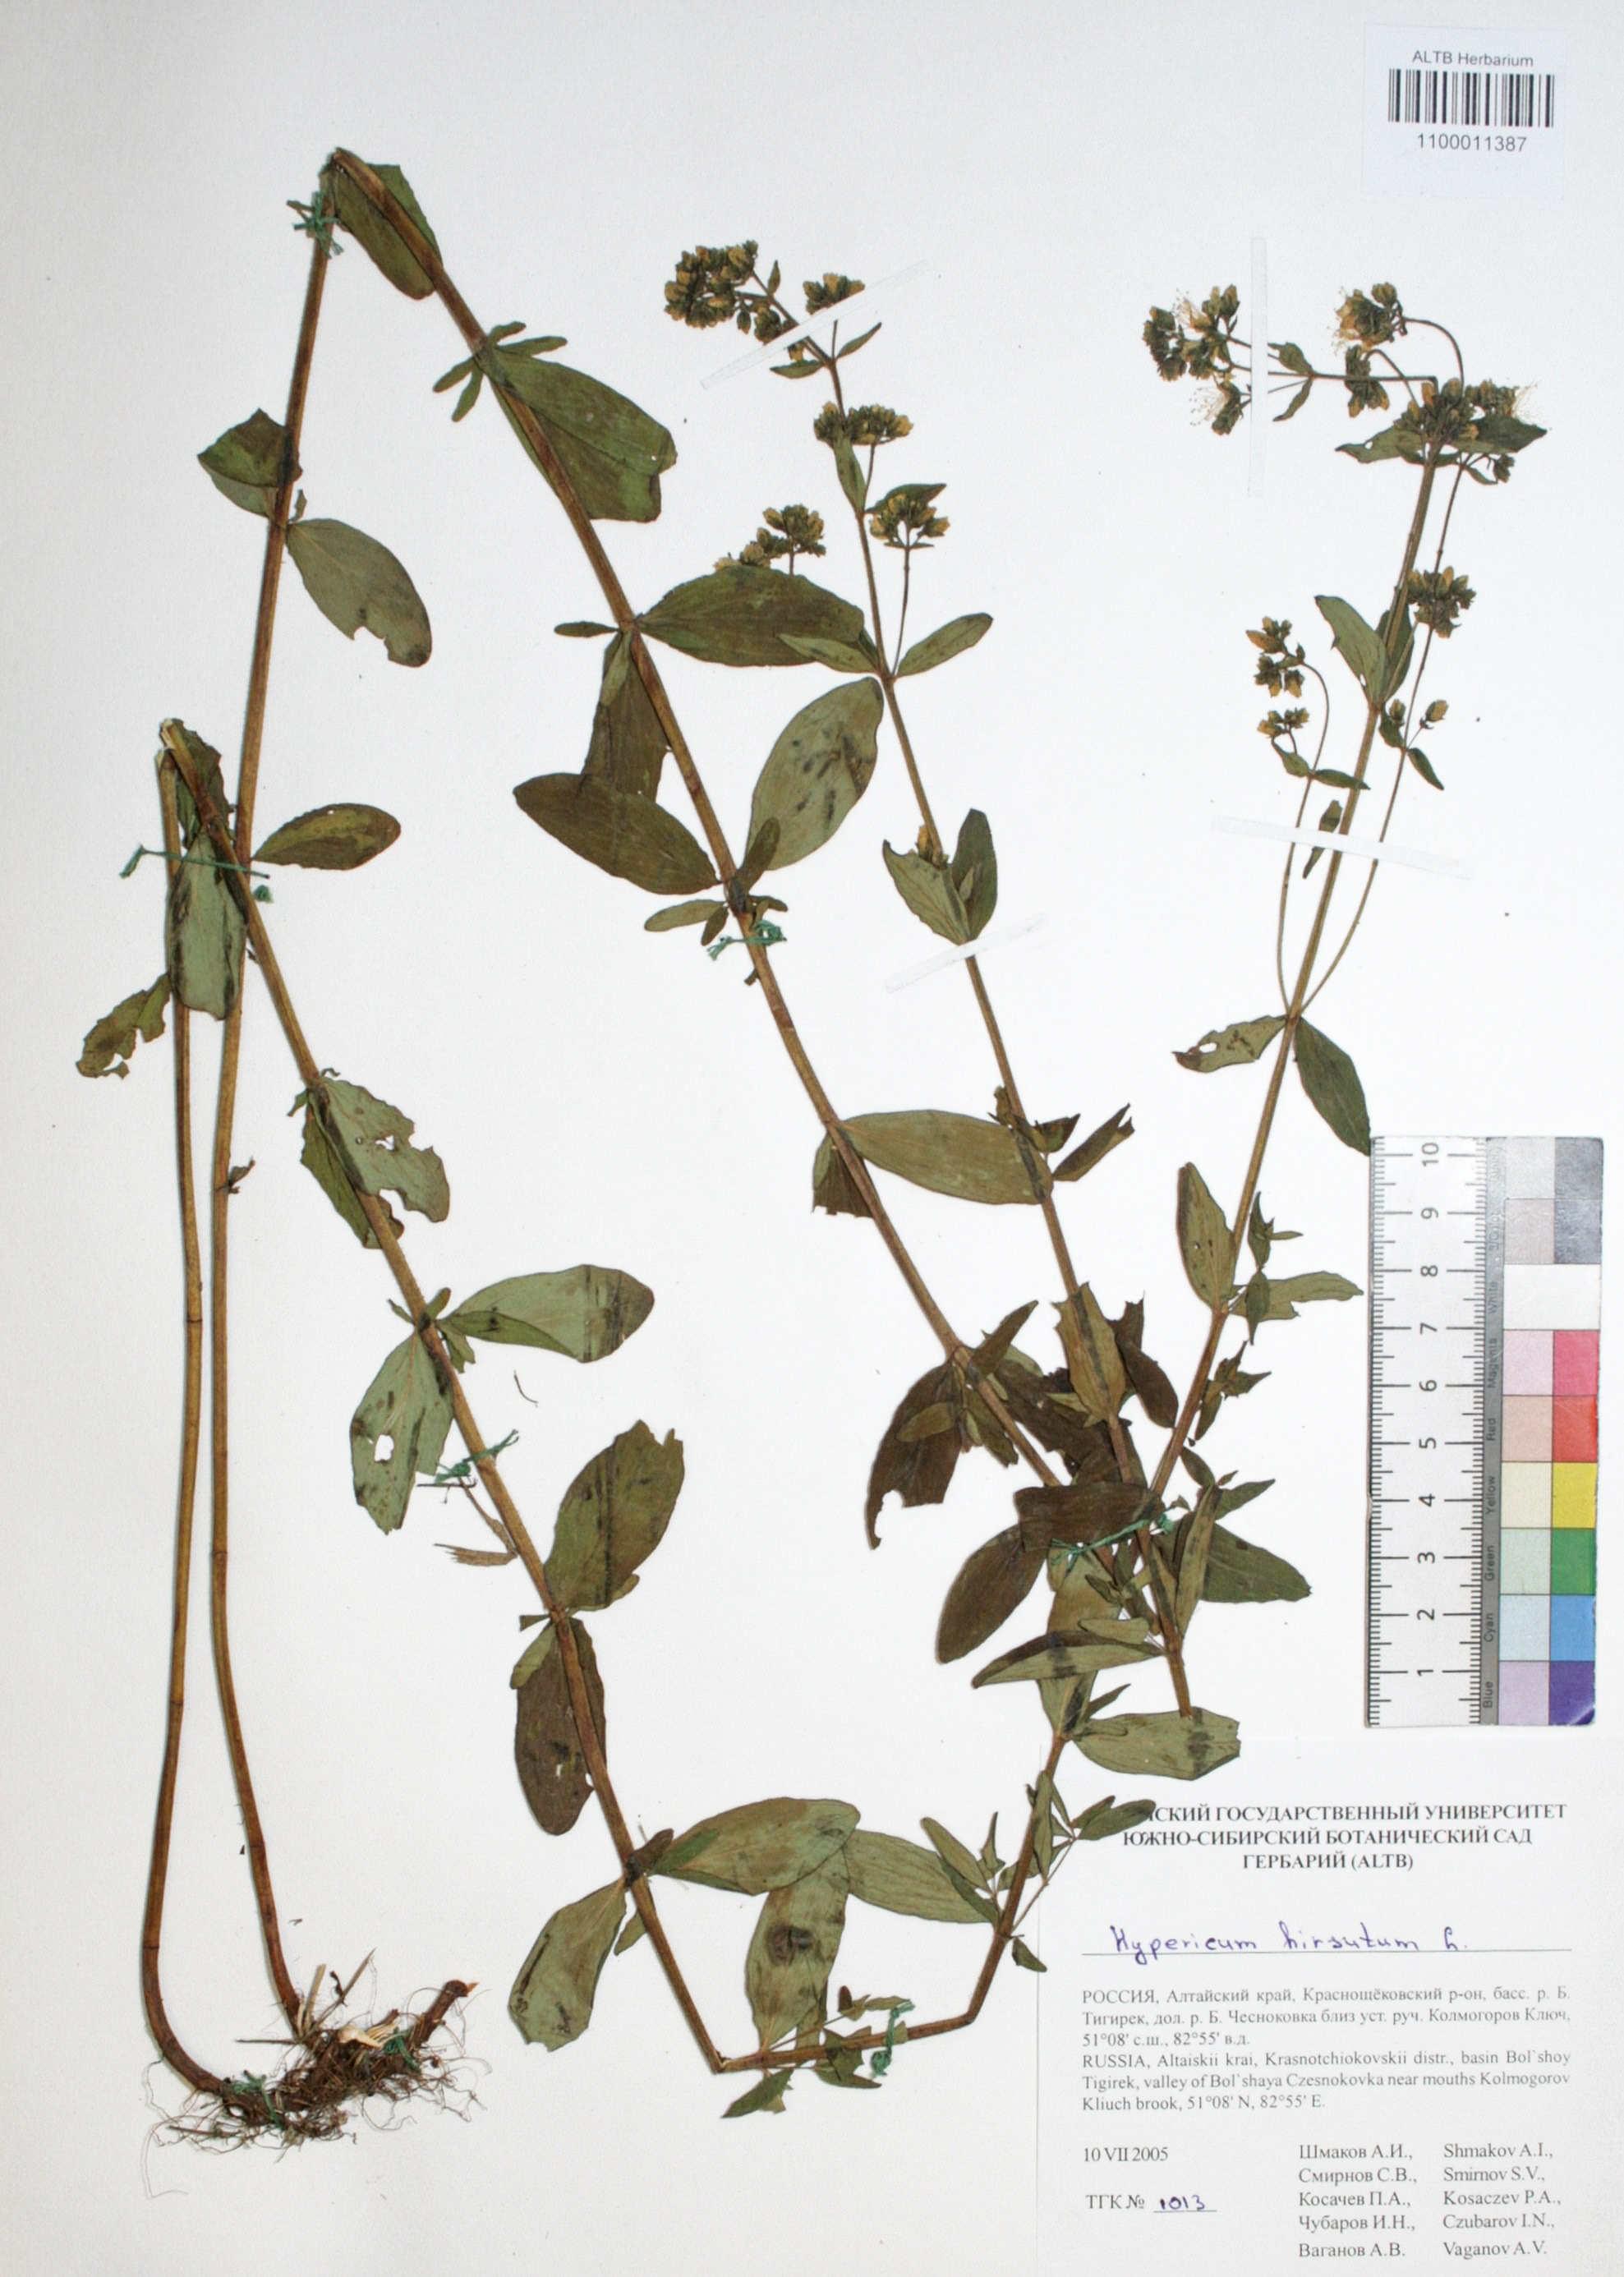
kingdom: Plantae
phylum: Tracheophyta
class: Magnoliopsida
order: Malpighiales
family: Hypericaceae
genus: Hypericum
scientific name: Hypericum hirsutum
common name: Hairy st. john's-wort
